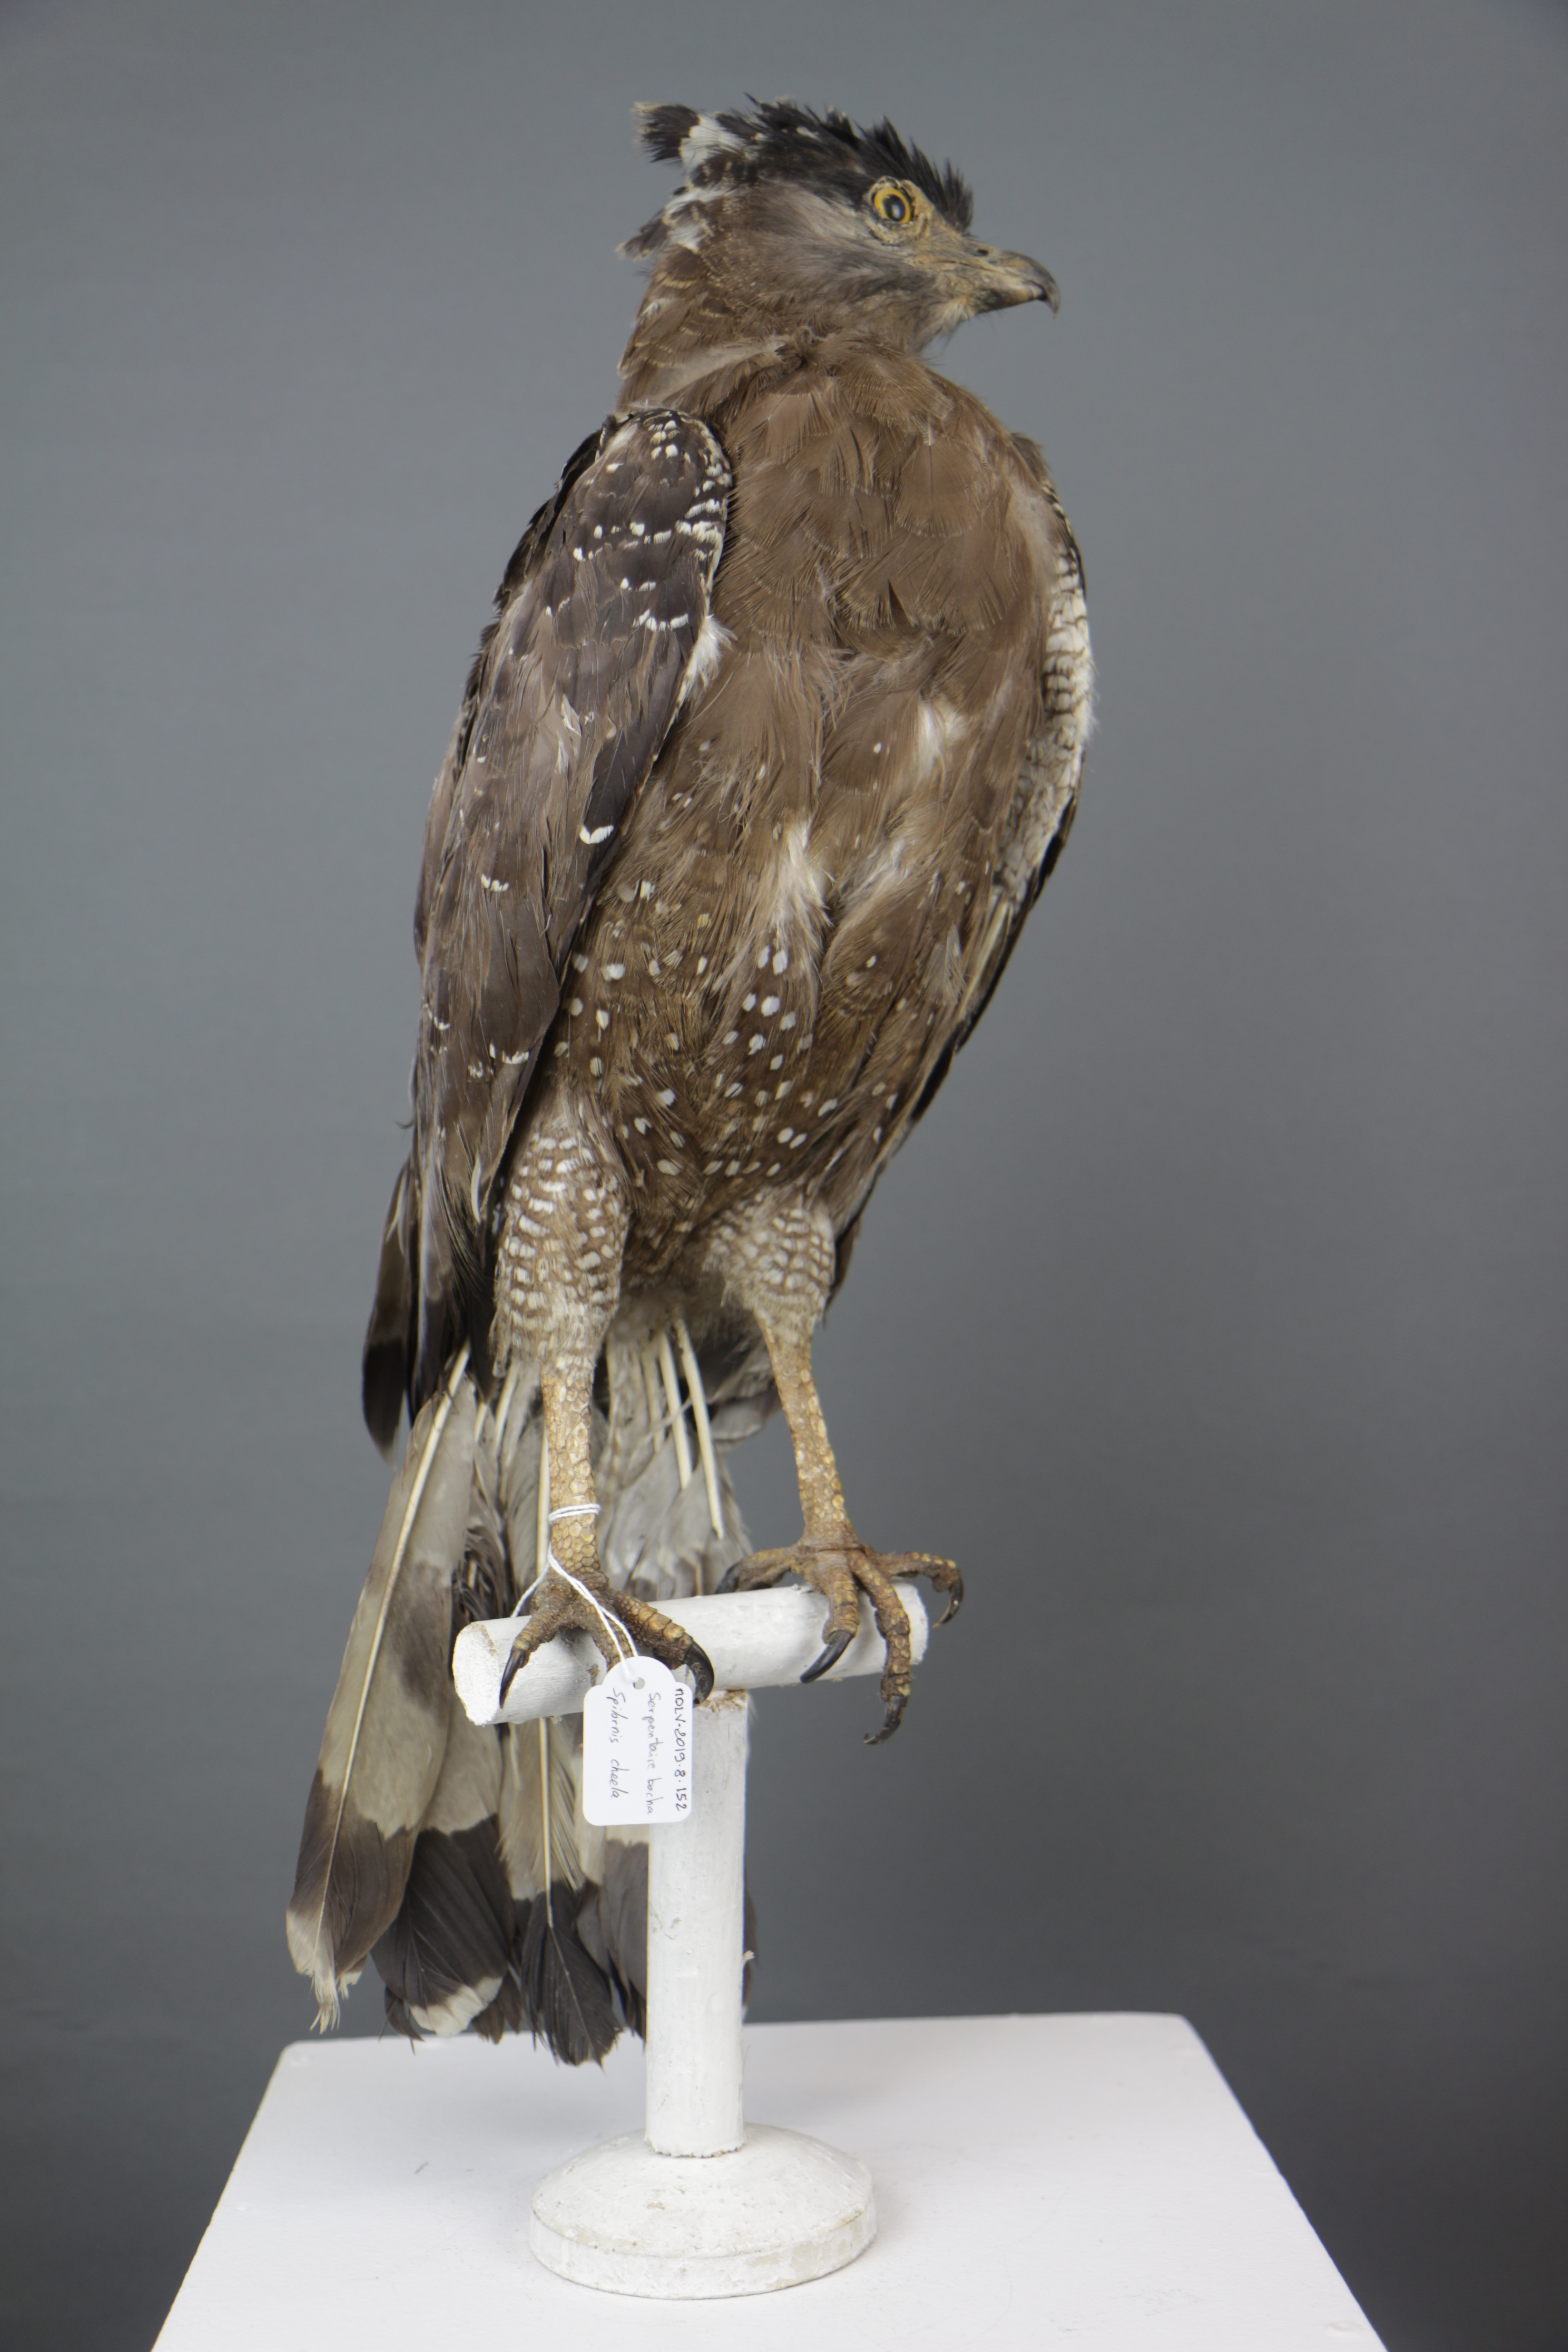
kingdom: Animalia
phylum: Chordata
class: Aves
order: Accipitriformes
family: Accipitridae
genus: Spilornis
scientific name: Spilornis cheela
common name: Crested serpent eagle
